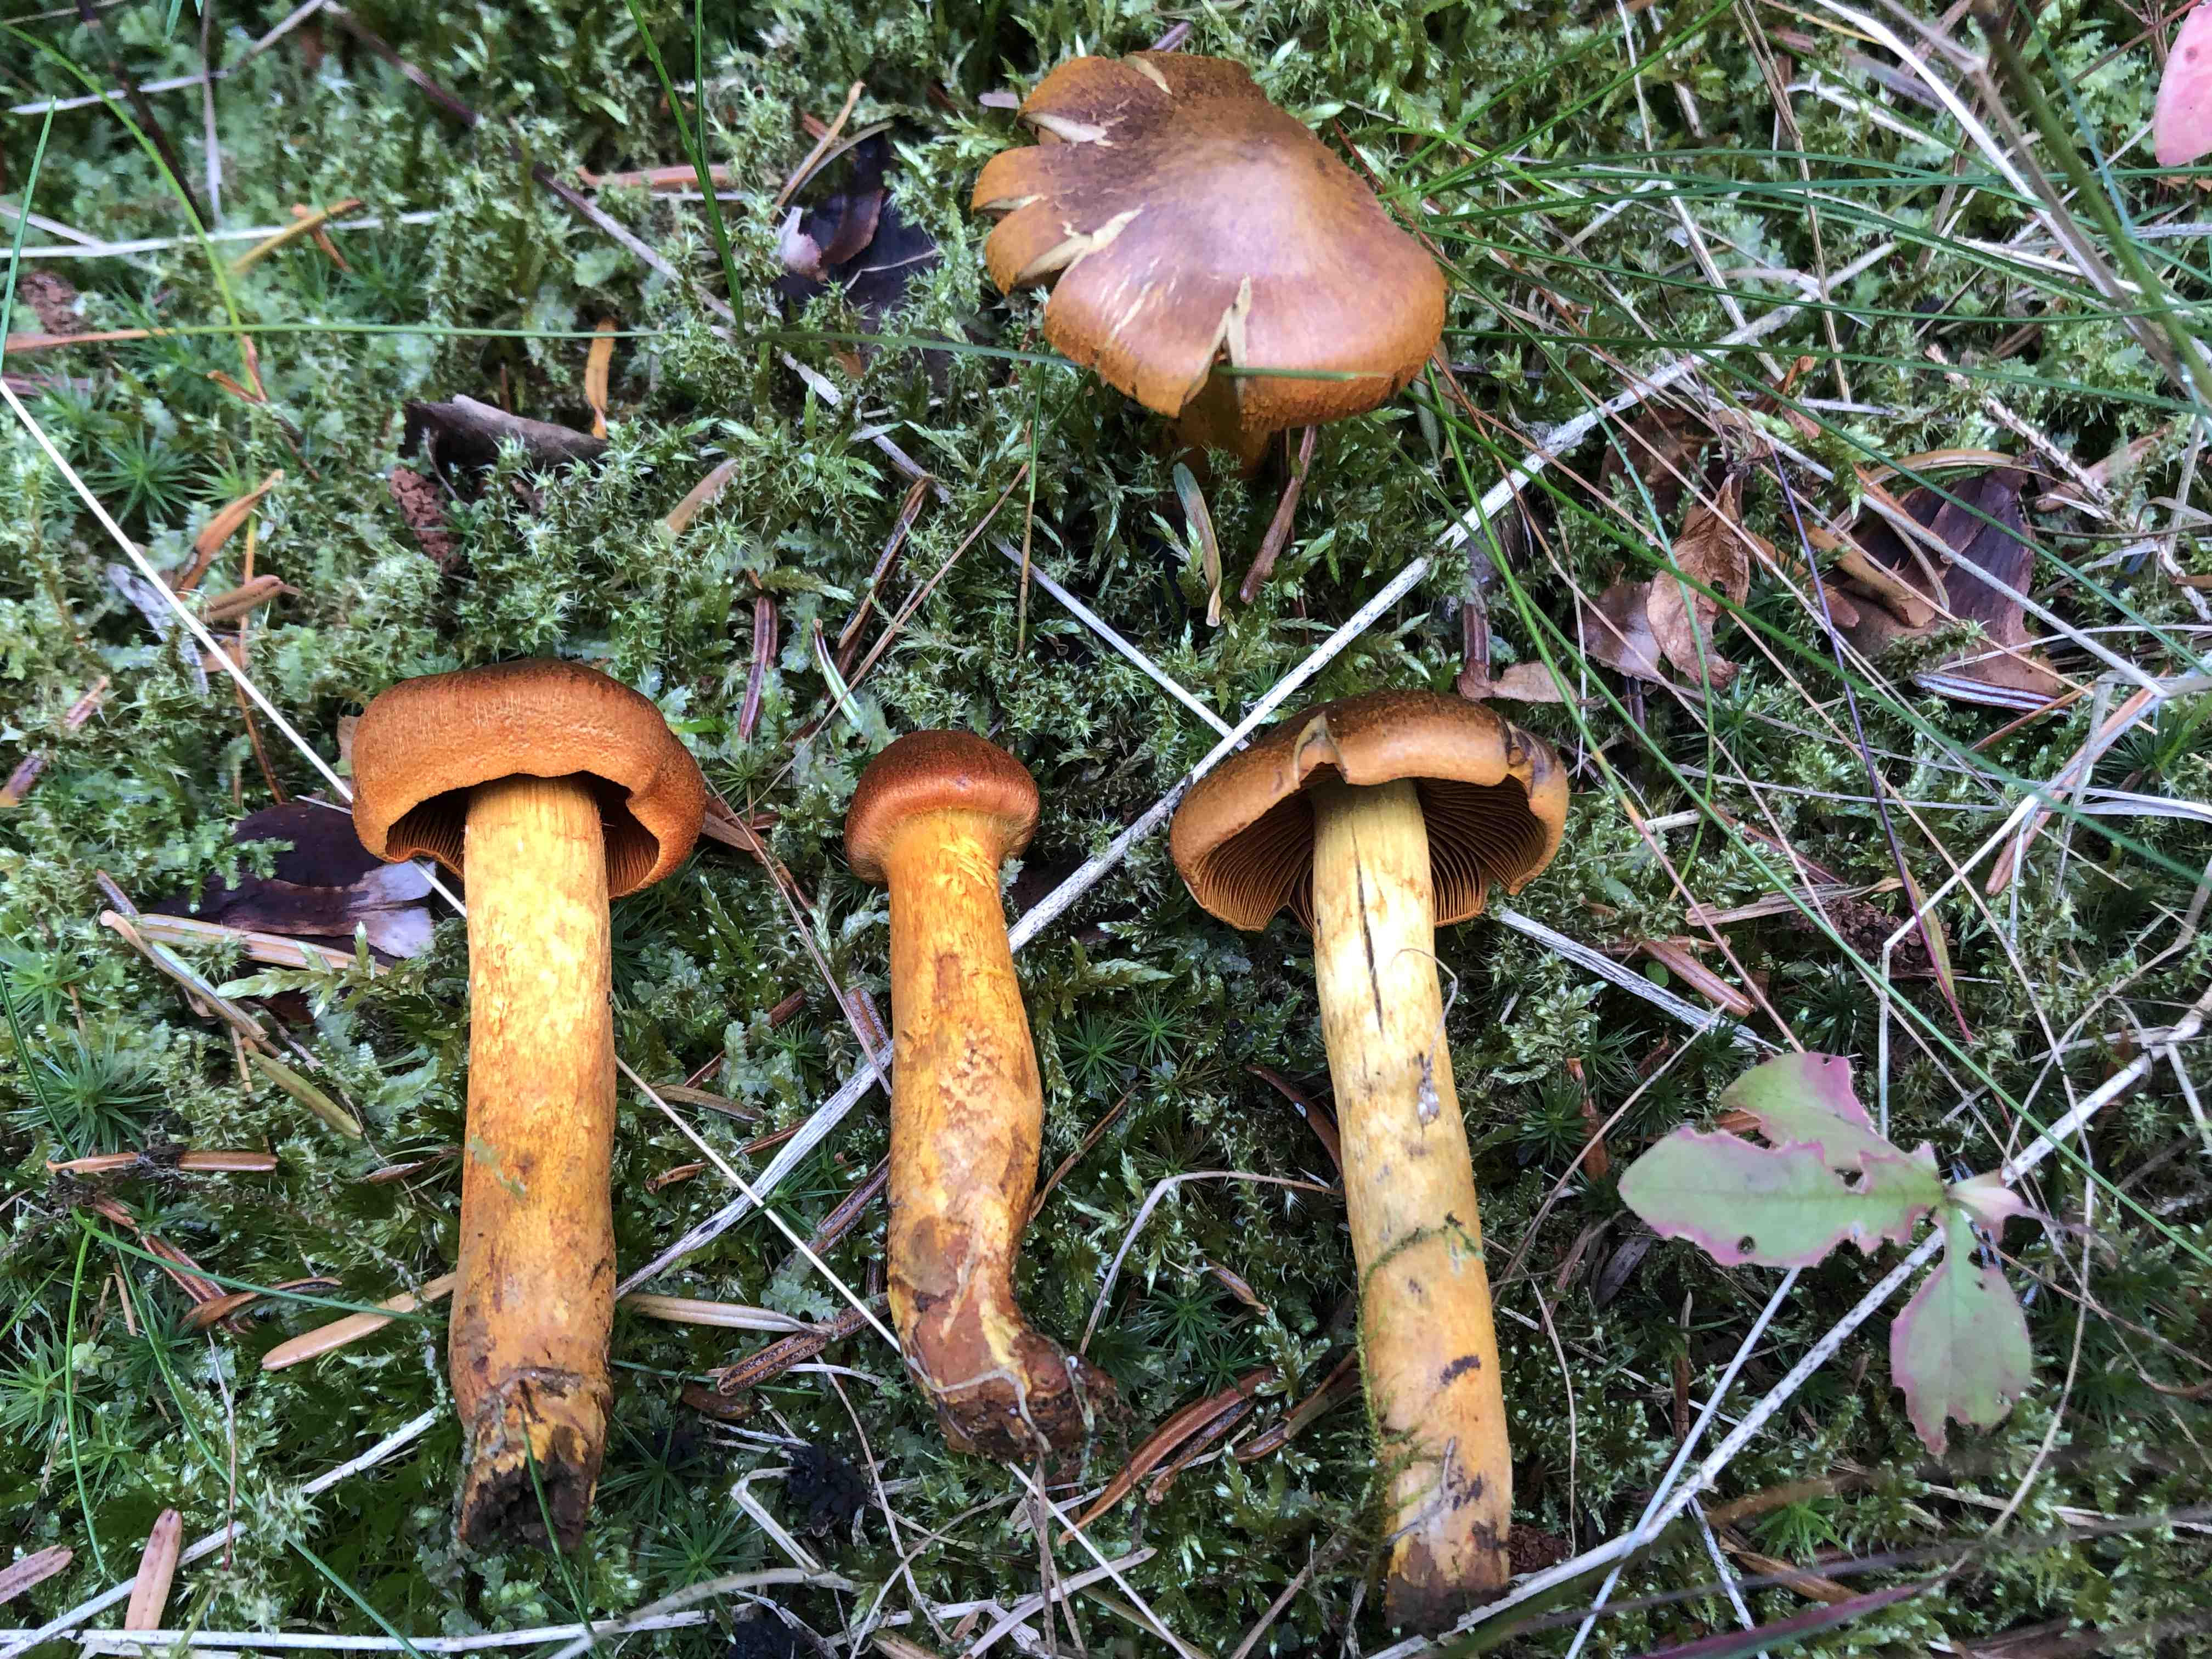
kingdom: Fungi
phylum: Basidiomycota
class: Agaricomycetes
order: Agaricales
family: Cortinariaceae
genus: Cortinarius
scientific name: Cortinarius malicorius
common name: grønkødet slørhat
